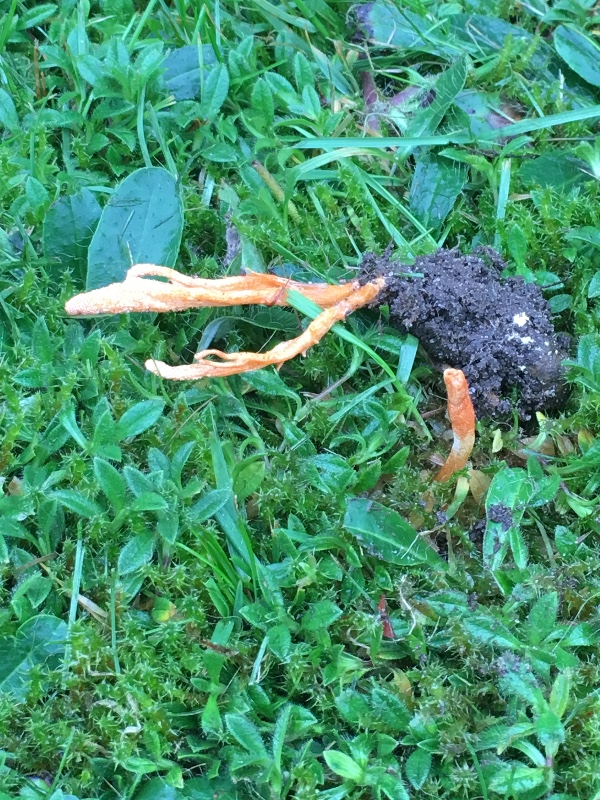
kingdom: Fungi
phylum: Ascomycota
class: Sordariomycetes
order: Hypocreales
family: Cordycipitaceae
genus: Cordyceps
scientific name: Cordyceps militaris
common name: puppe-snyltekølle
